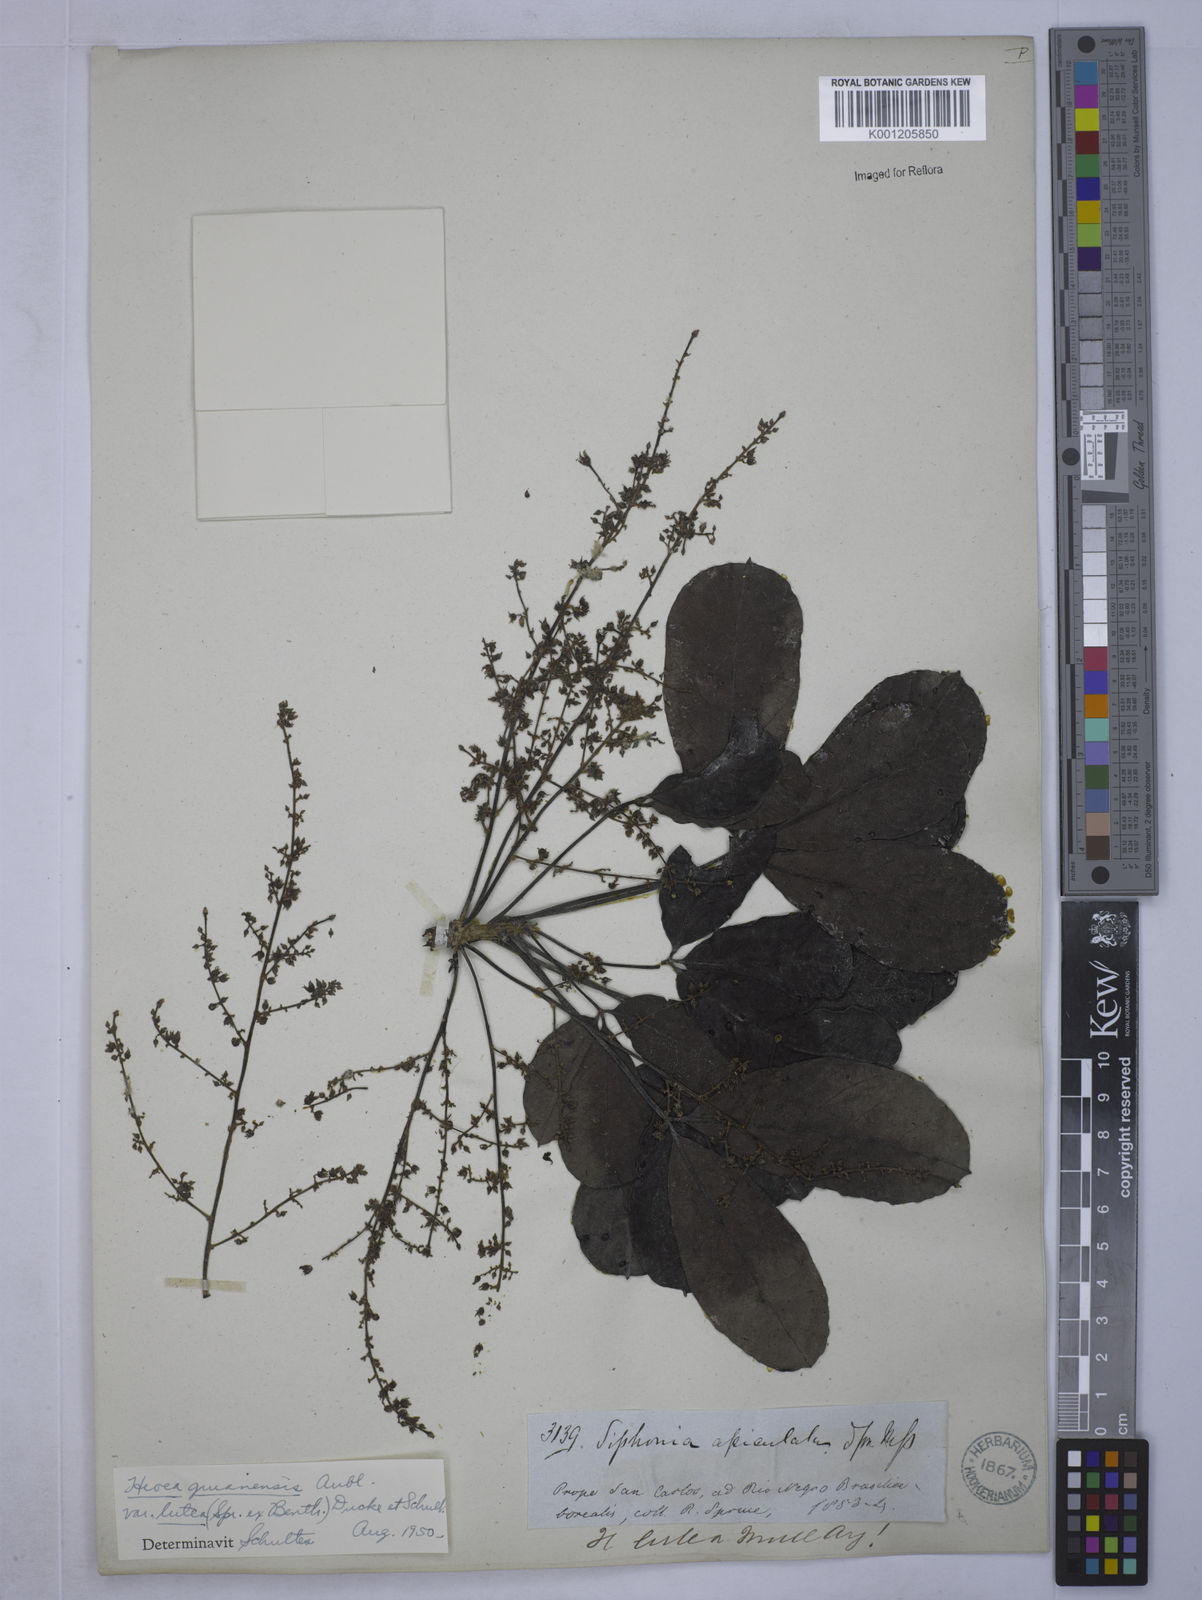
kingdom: Plantae
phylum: Tracheophyta
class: Magnoliopsida
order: Malpighiales
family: Euphorbiaceae
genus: Hevea
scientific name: Hevea guianensis
